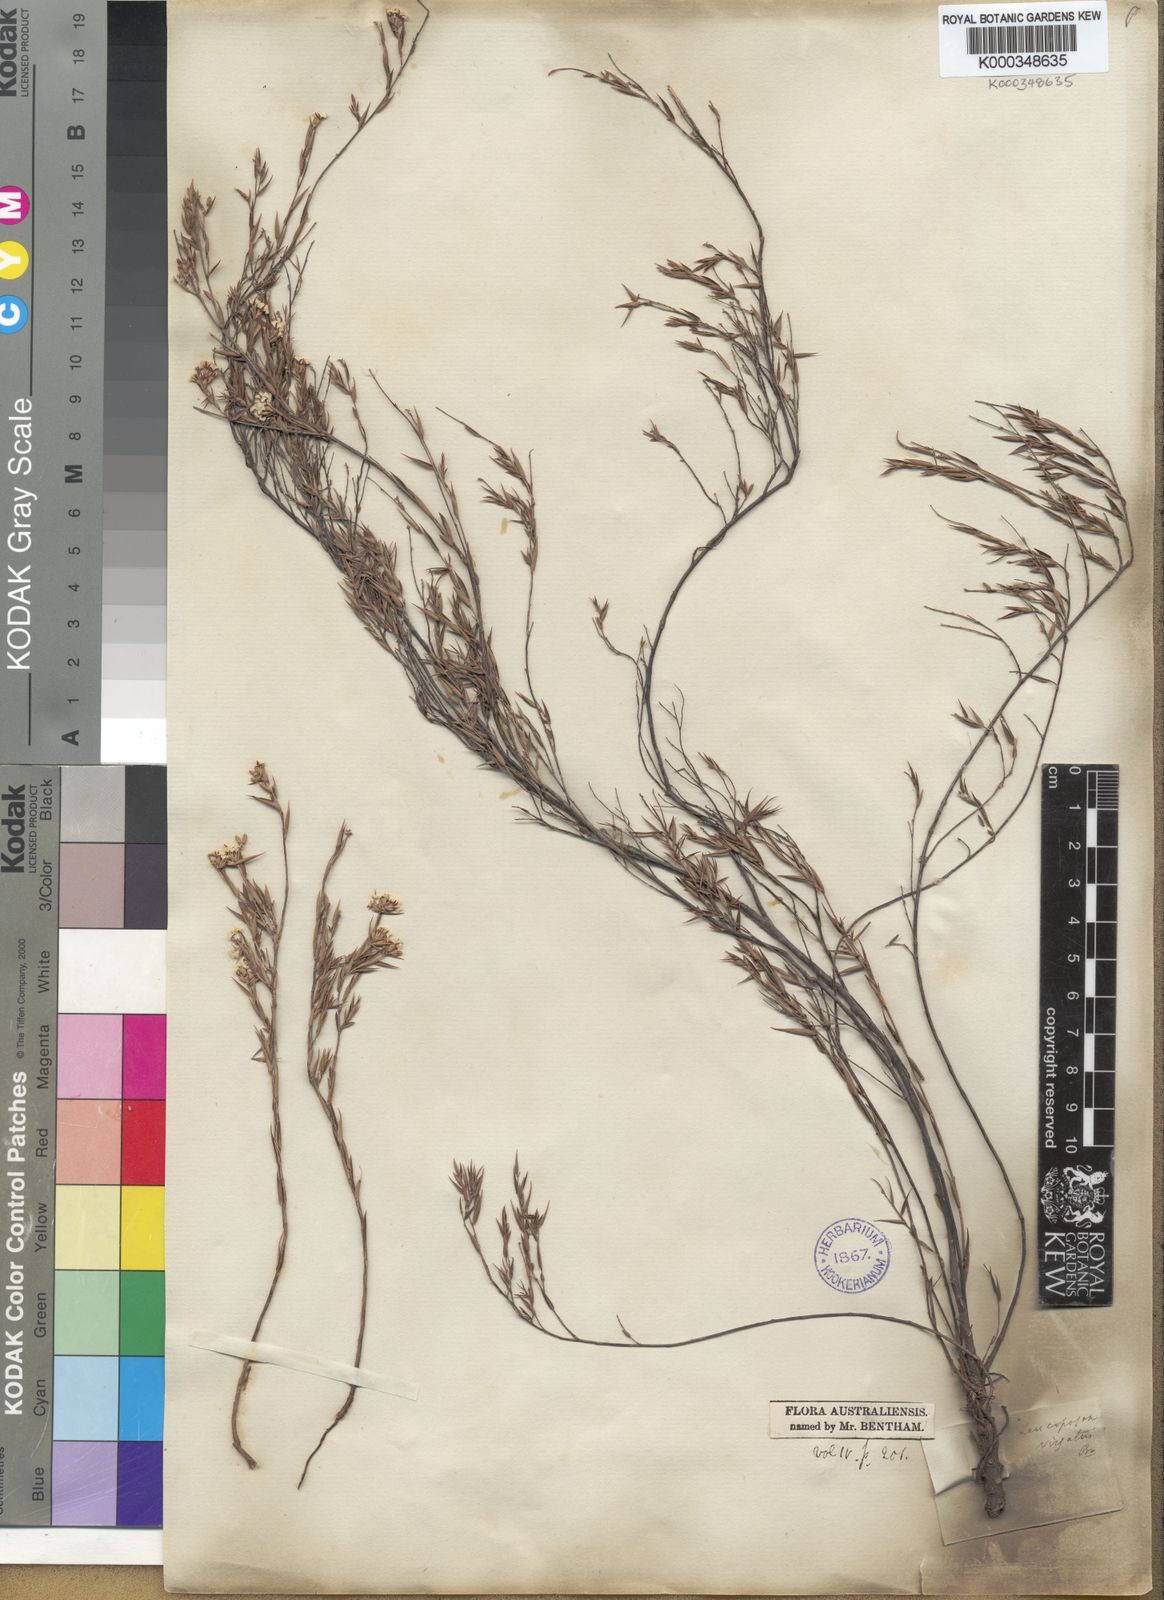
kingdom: Plantae
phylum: Tracheophyta
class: Magnoliopsida
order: Ericales
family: Ericaceae
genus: Leucopogon
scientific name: Leucopogon virgatus
